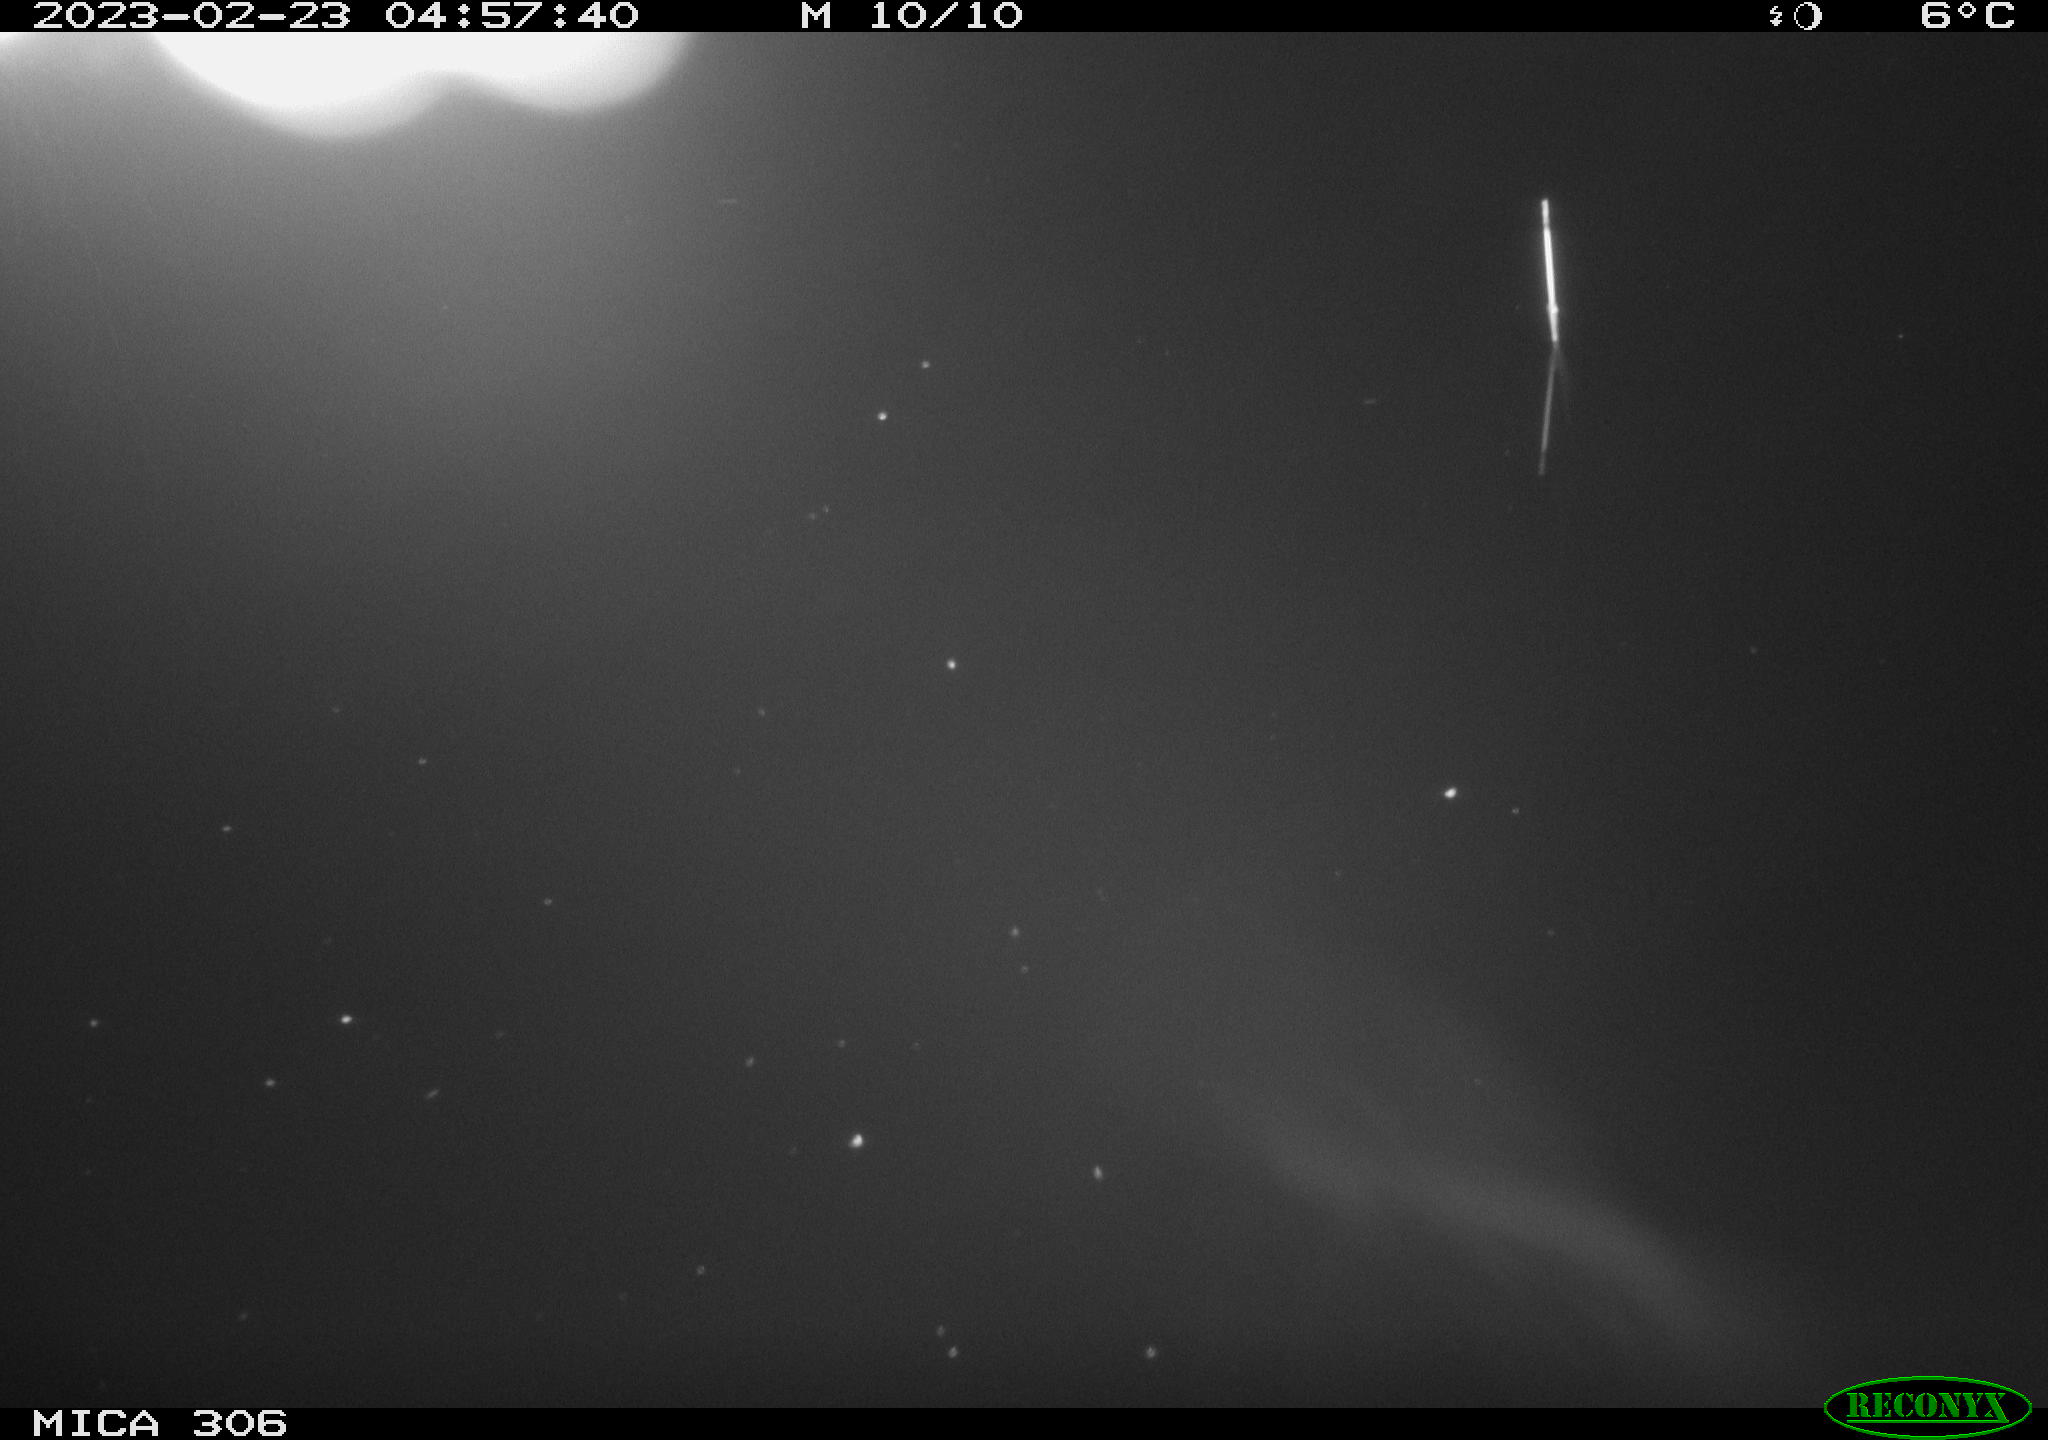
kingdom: Animalia
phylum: Chordata
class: Mammalia
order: Rodentia
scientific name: Rodentia
